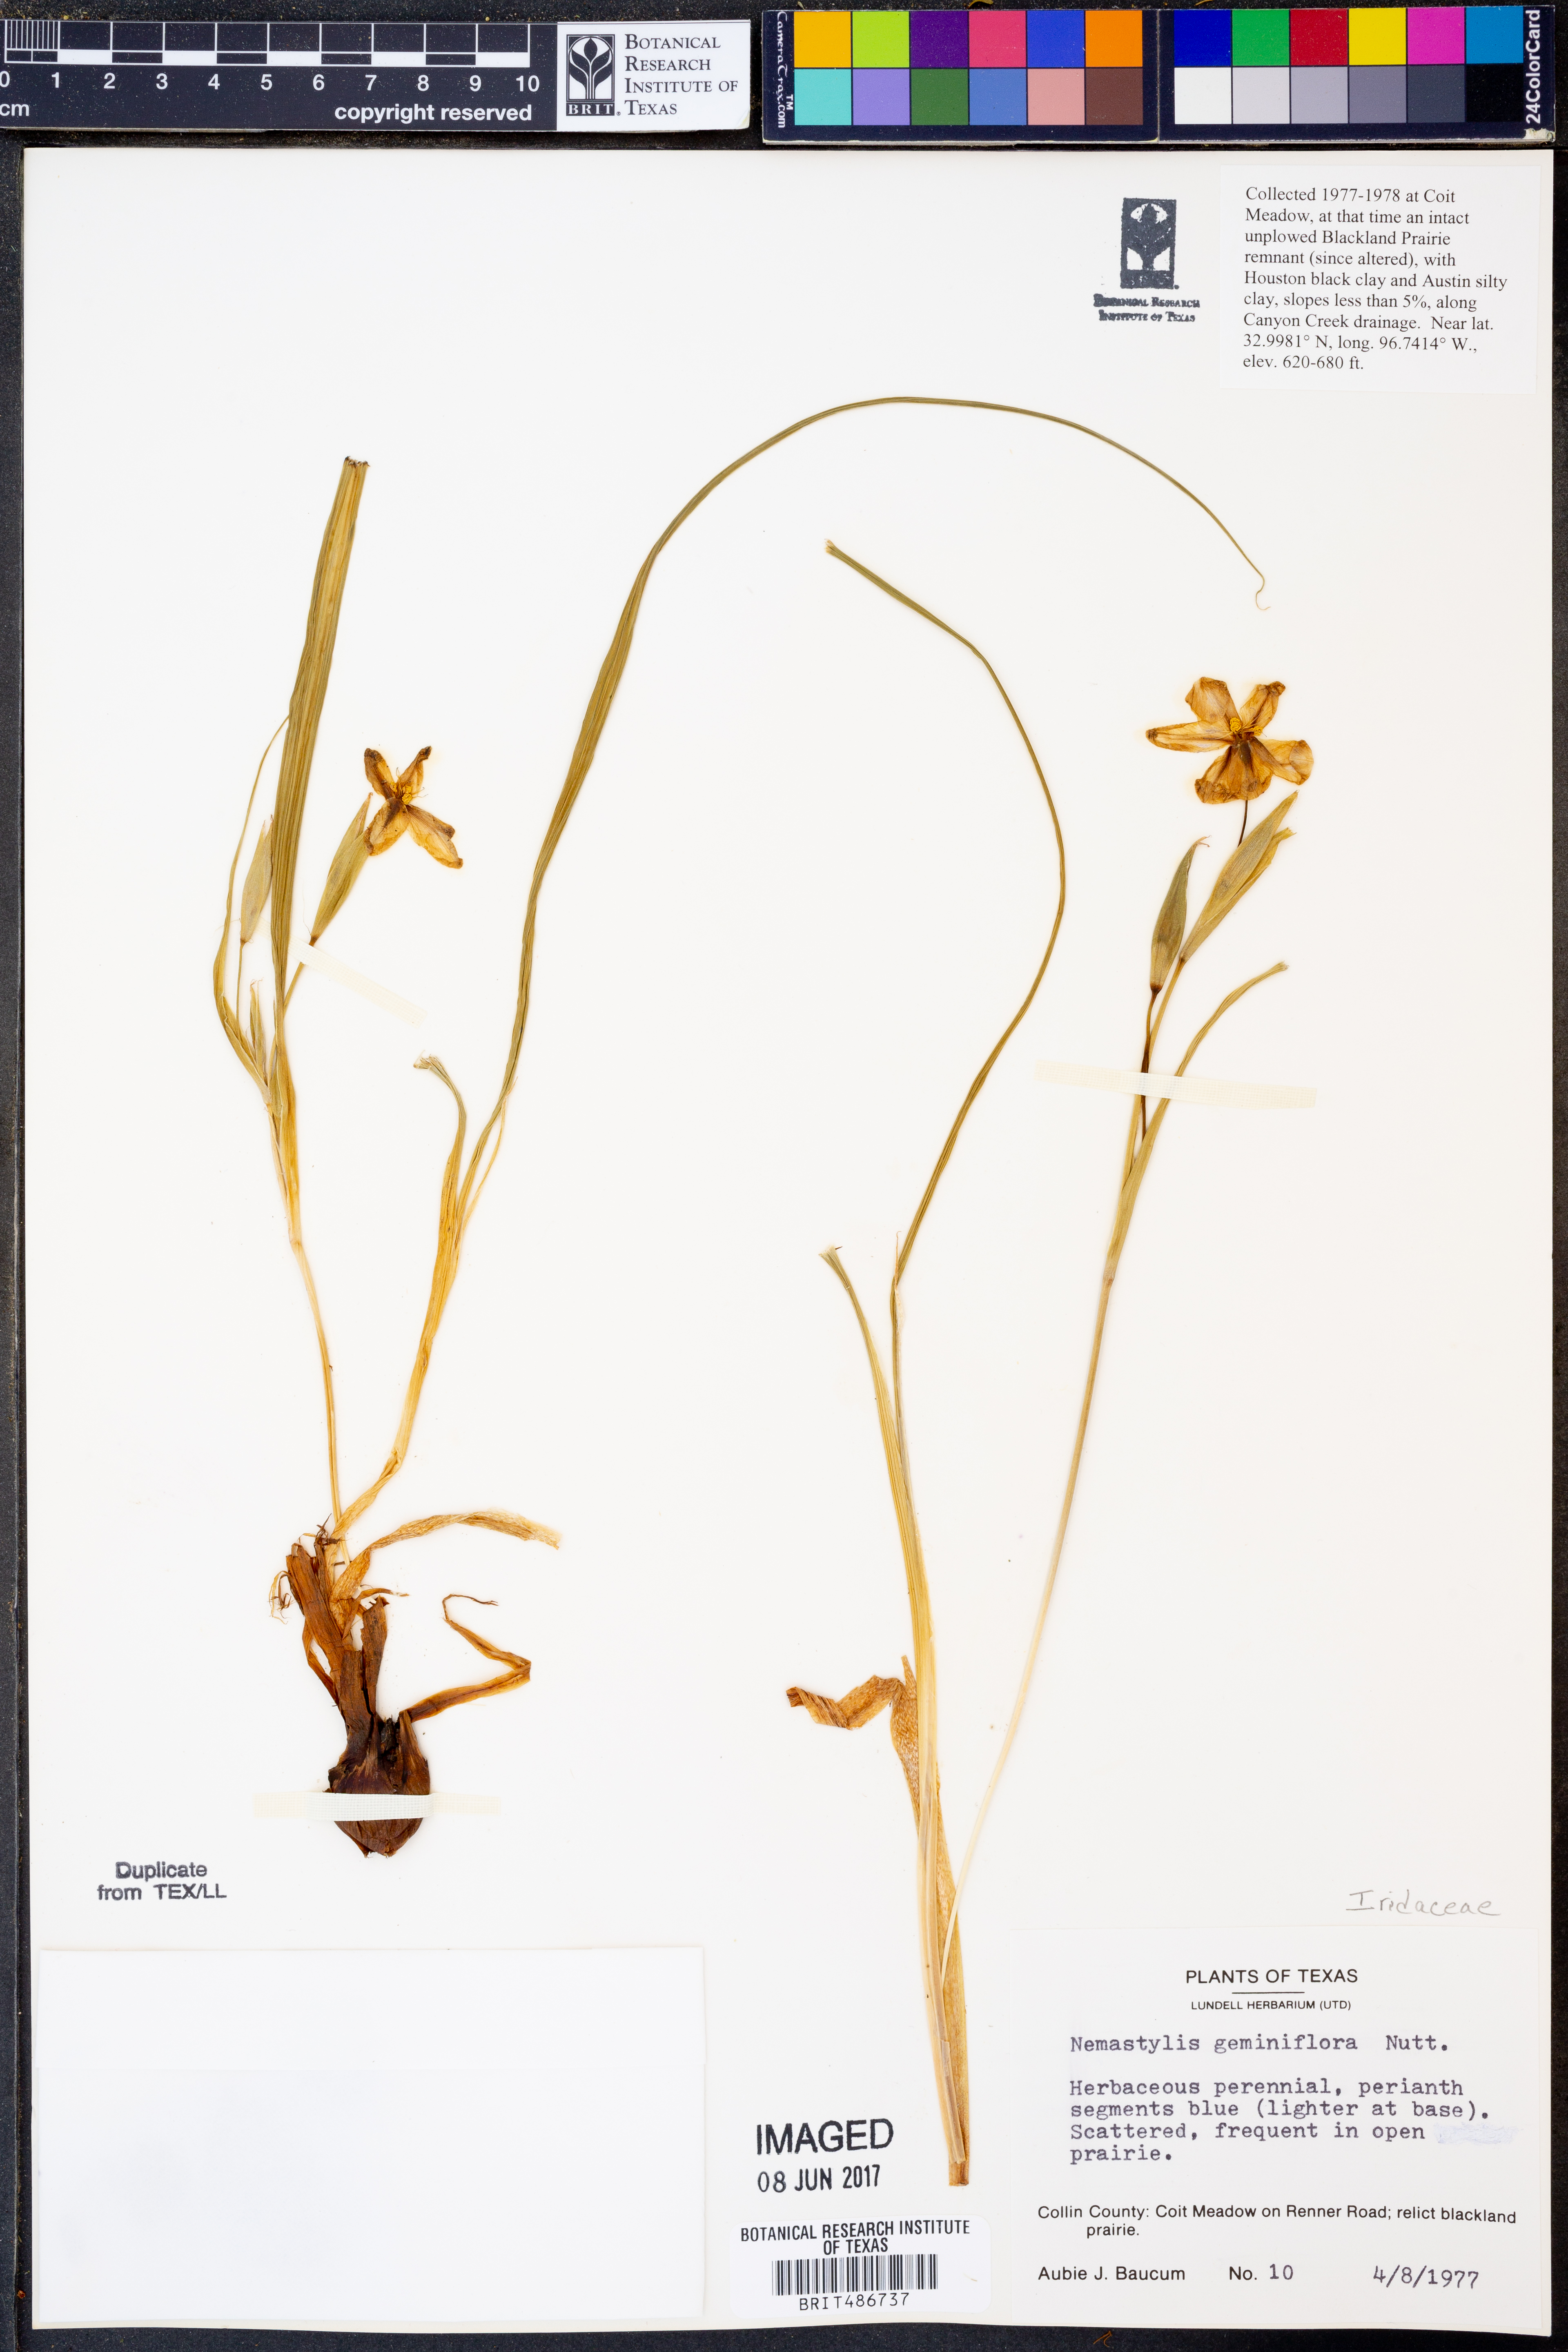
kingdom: Plantae
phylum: Tracheophyta
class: Liliopsida
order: Asparagales
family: Iridaceae
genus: Nemastylis
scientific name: Nemastylis geminiflora
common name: Prairie celestial
